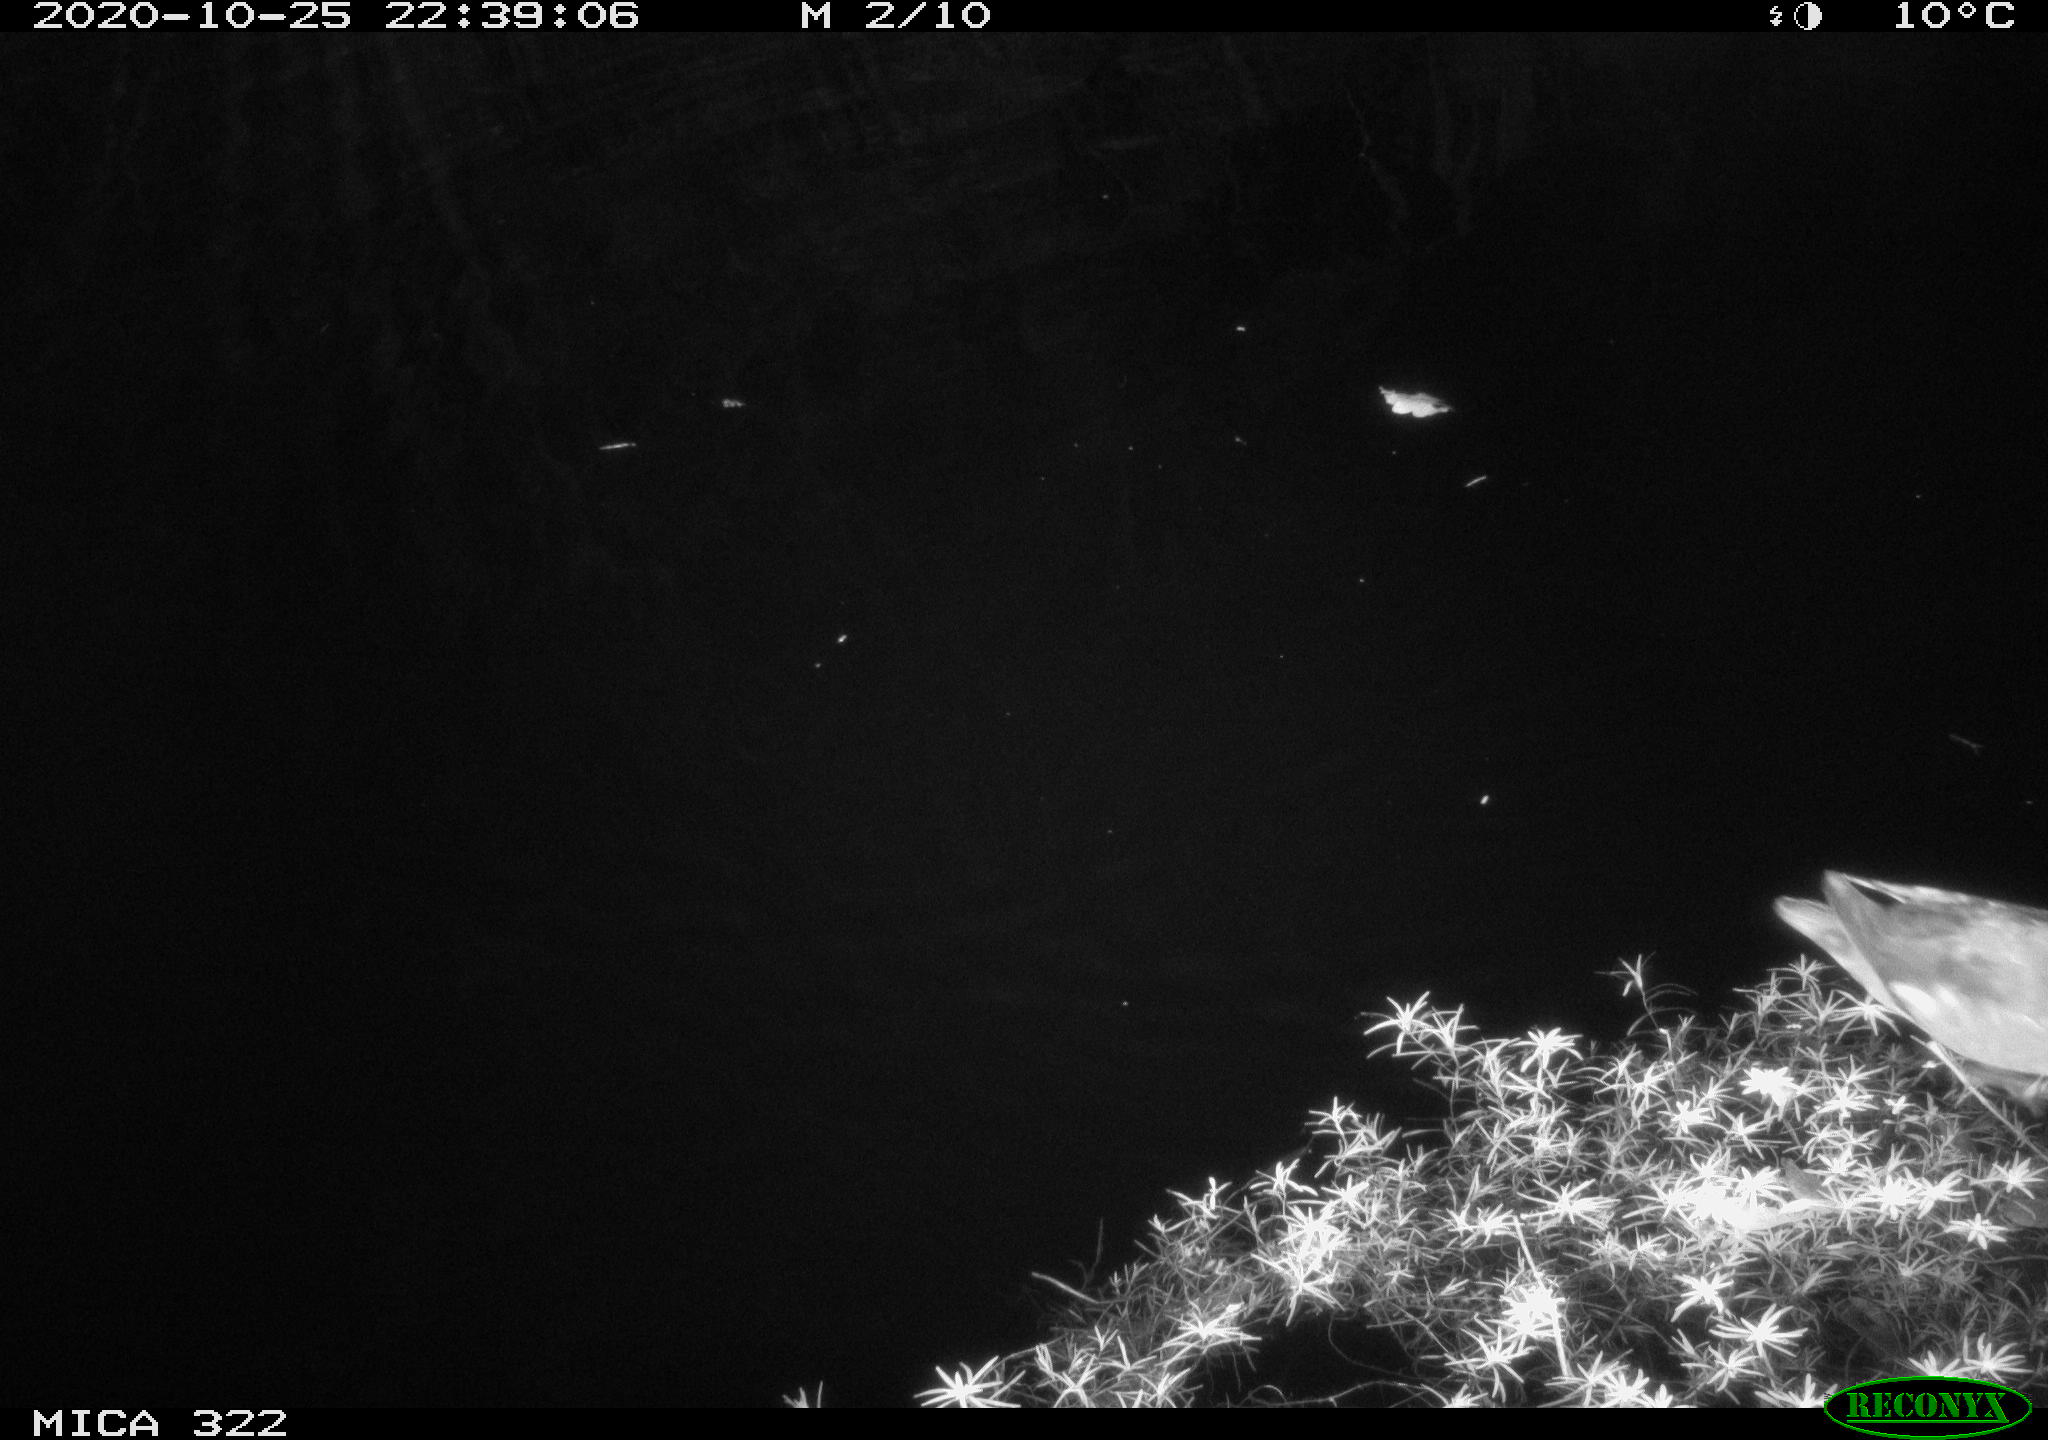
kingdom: Animalia
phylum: Chordata
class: Aves
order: Gruiformes
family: Rallidae
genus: Gallinula
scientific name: Gallinula chloropus
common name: Common moorhen
